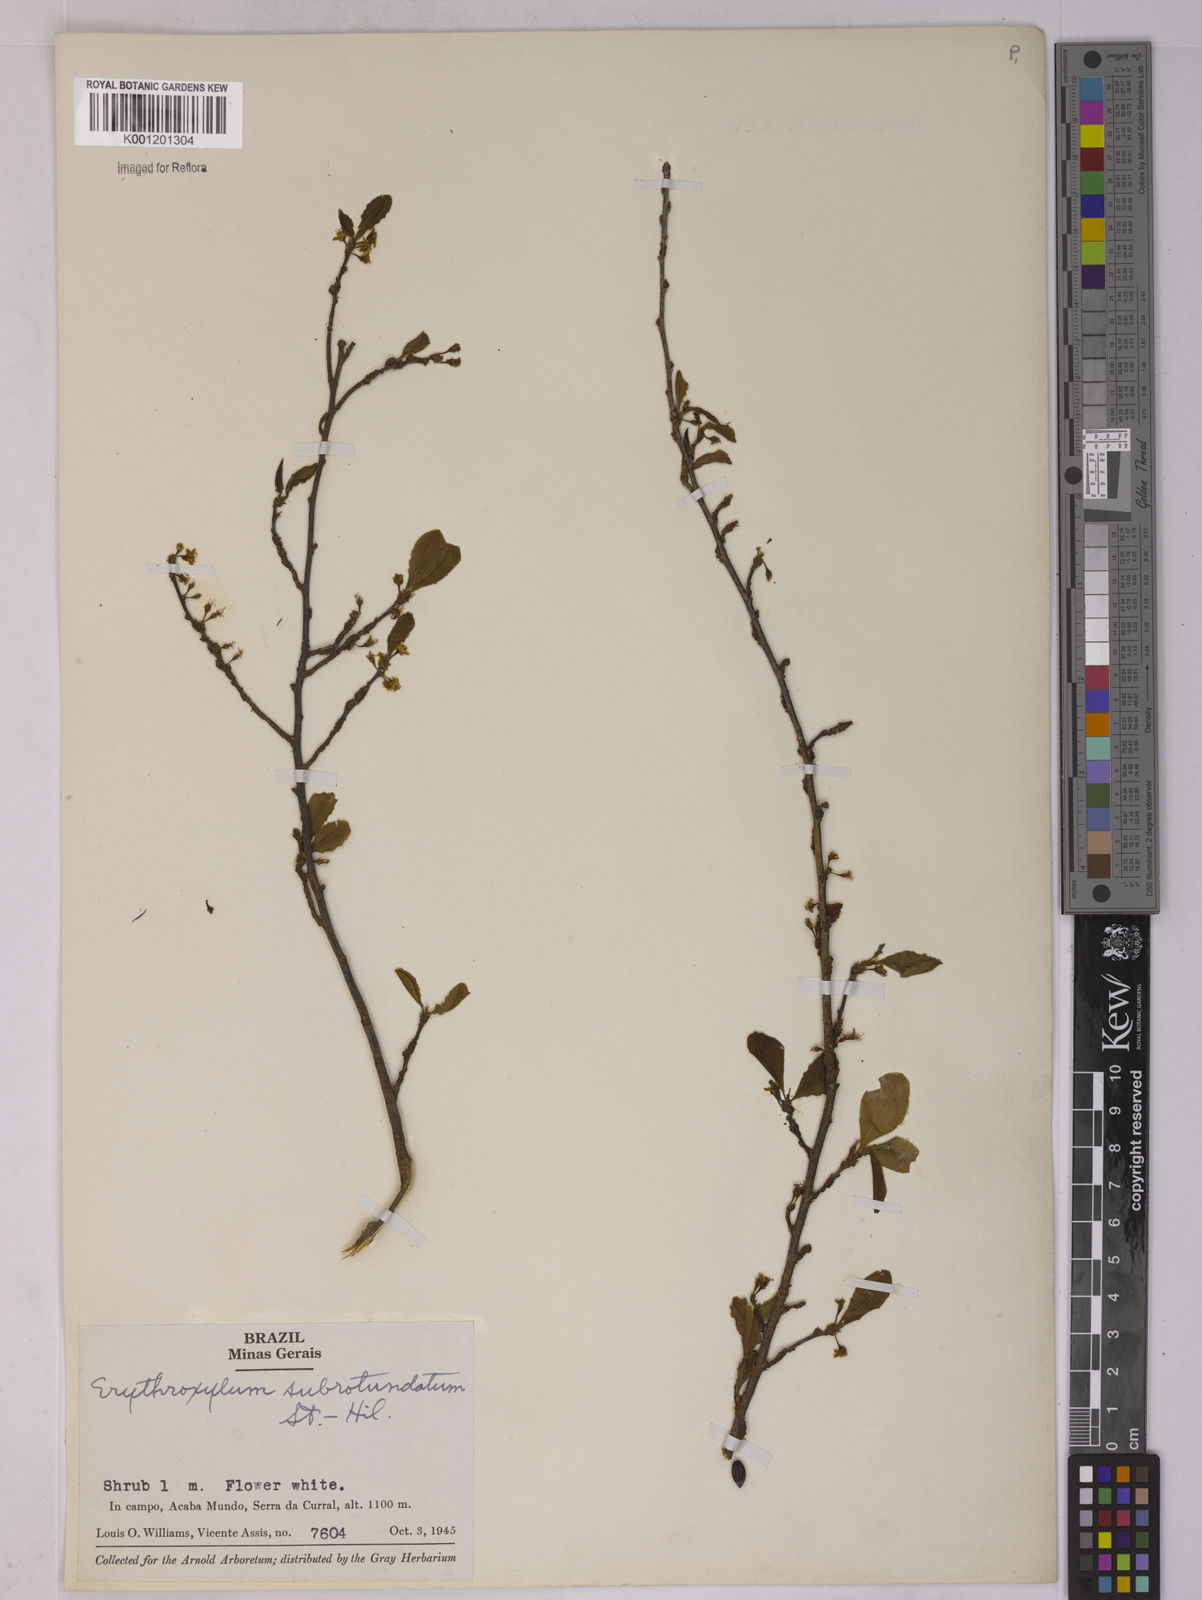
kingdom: Plantae
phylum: Tracheophyta
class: Magnoliopsida
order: Malpighiales
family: Erythroxylaceae
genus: Erythroxylum
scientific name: Erythroxylum subrotundum
